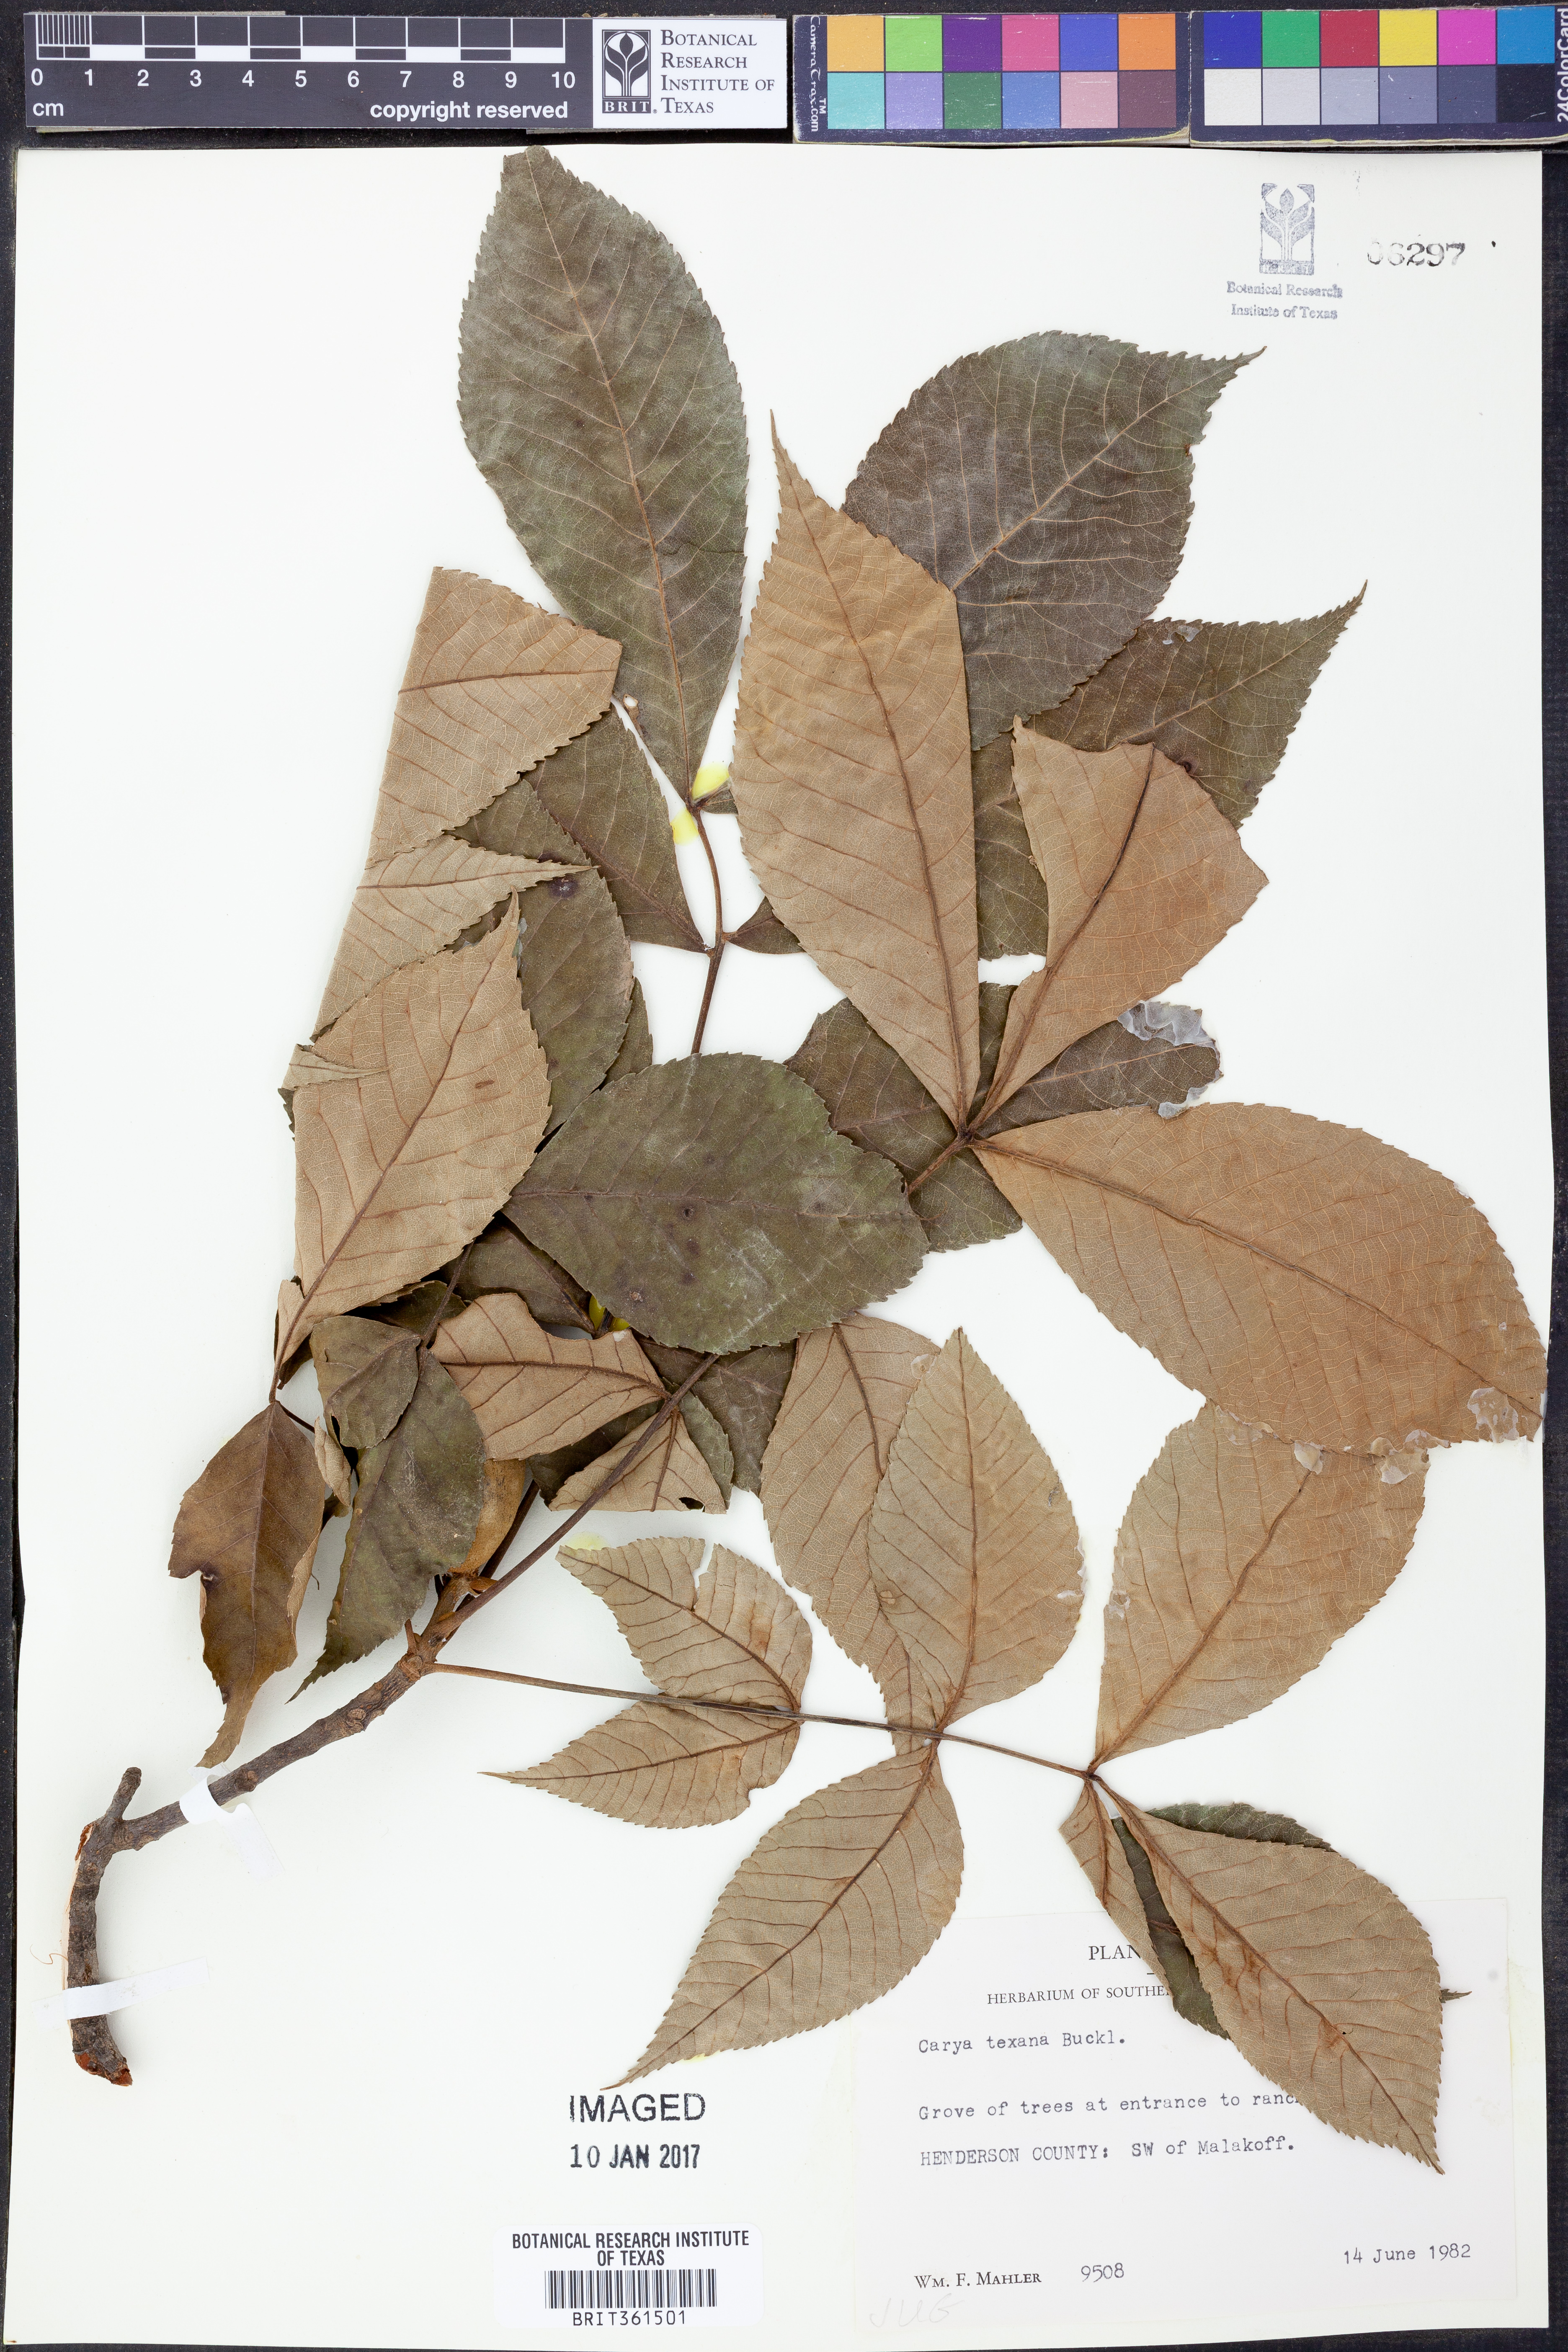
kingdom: Plantae
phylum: Tracheophyta
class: Magnoliopsida
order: Fagales
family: Juglandaceae
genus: Carya
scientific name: Carya texana
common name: Black hickory
